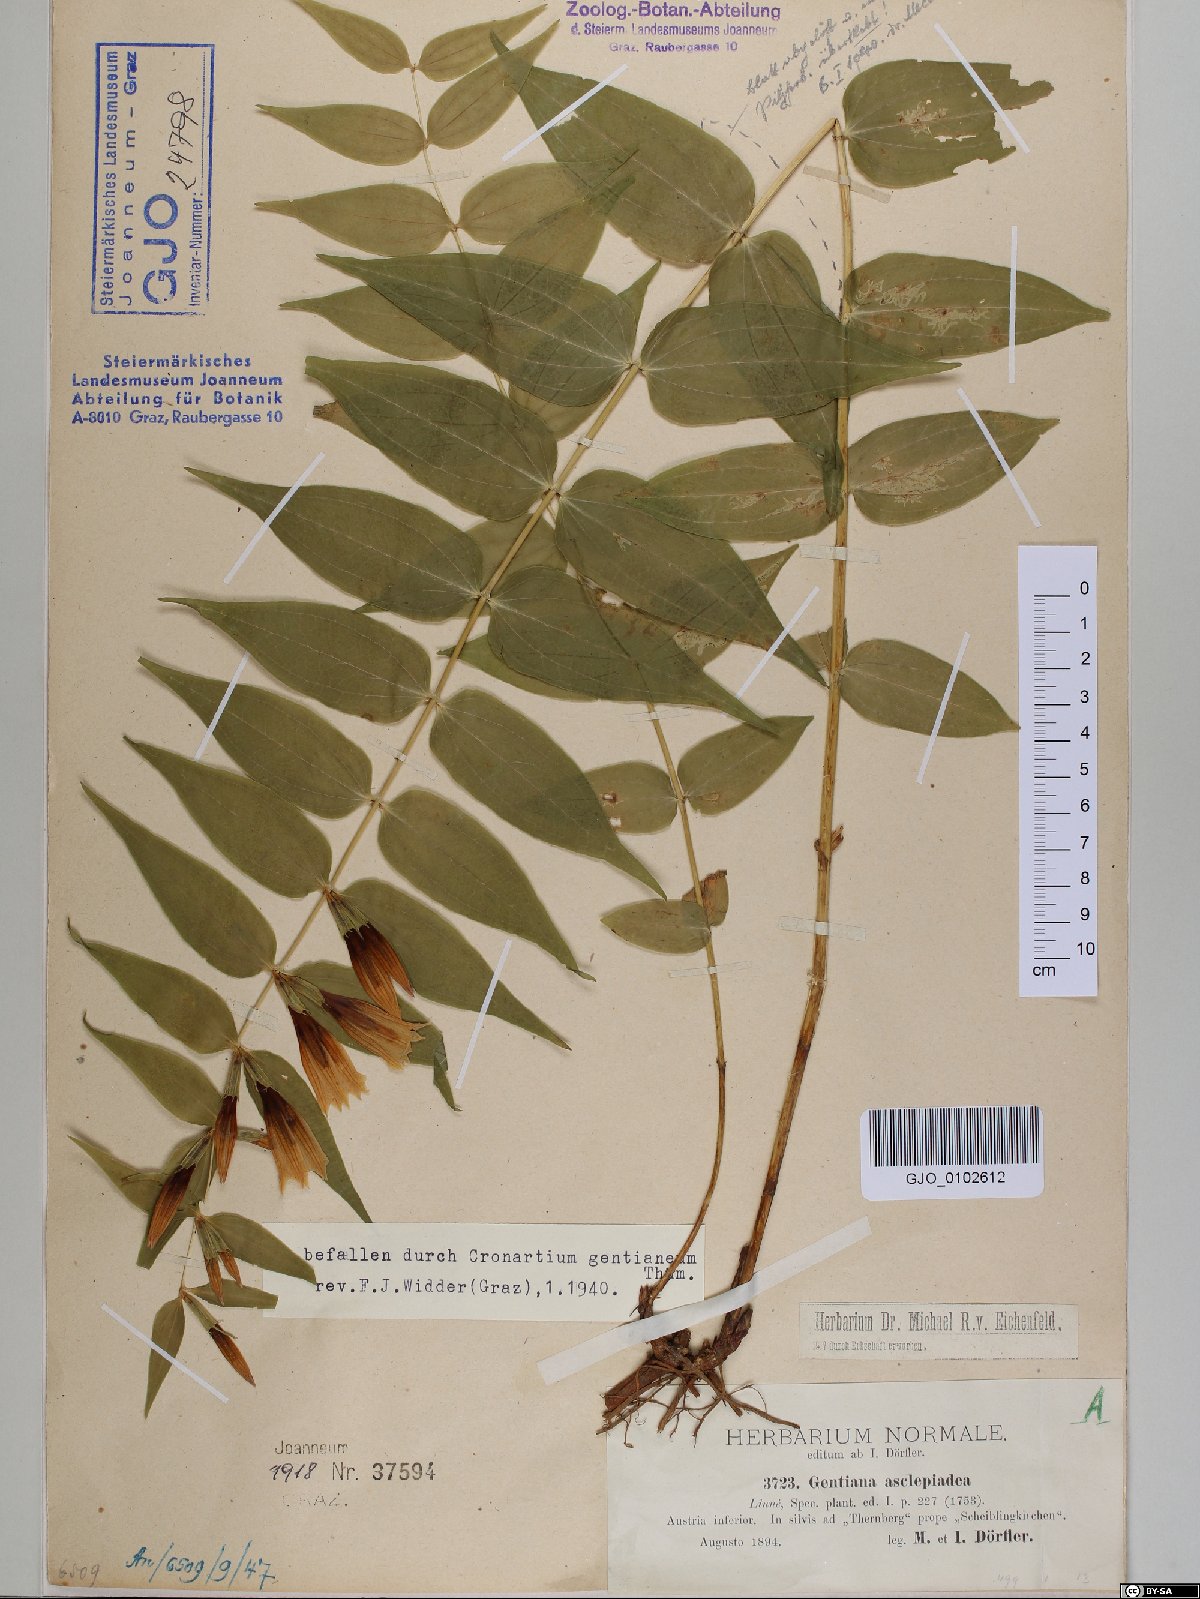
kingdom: Plantae
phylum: Tracheophyta
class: Magnoliopsida
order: Gentianales
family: Gentianaceae
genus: Gentiana
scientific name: Gentiana asclepiadea
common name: Willow gentian
